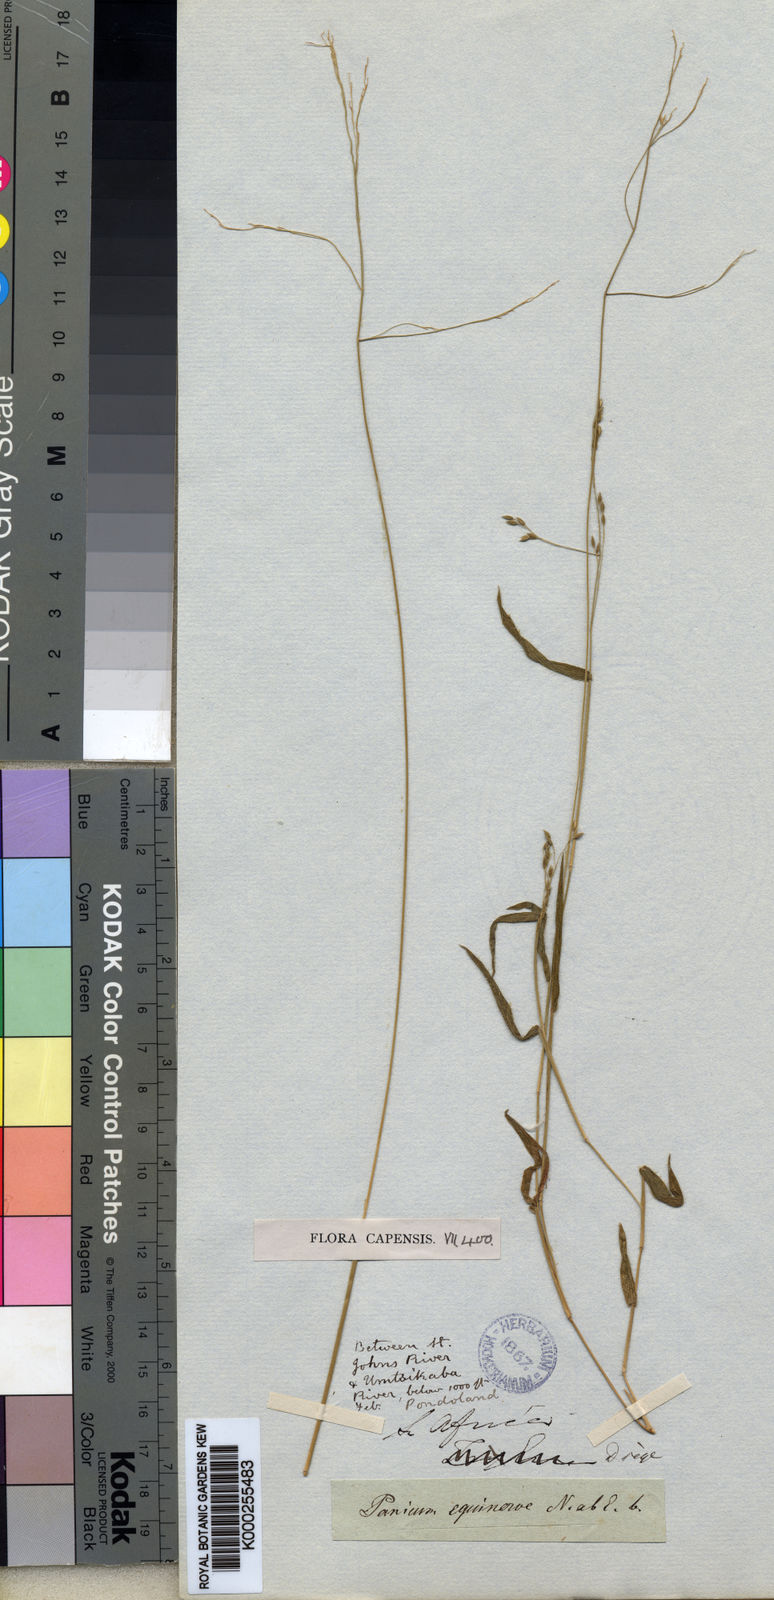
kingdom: Plantae
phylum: Tracheophyta
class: Liliopsida
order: Poales
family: Poaceae
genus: Panicum
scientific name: Panicum aequinerve
